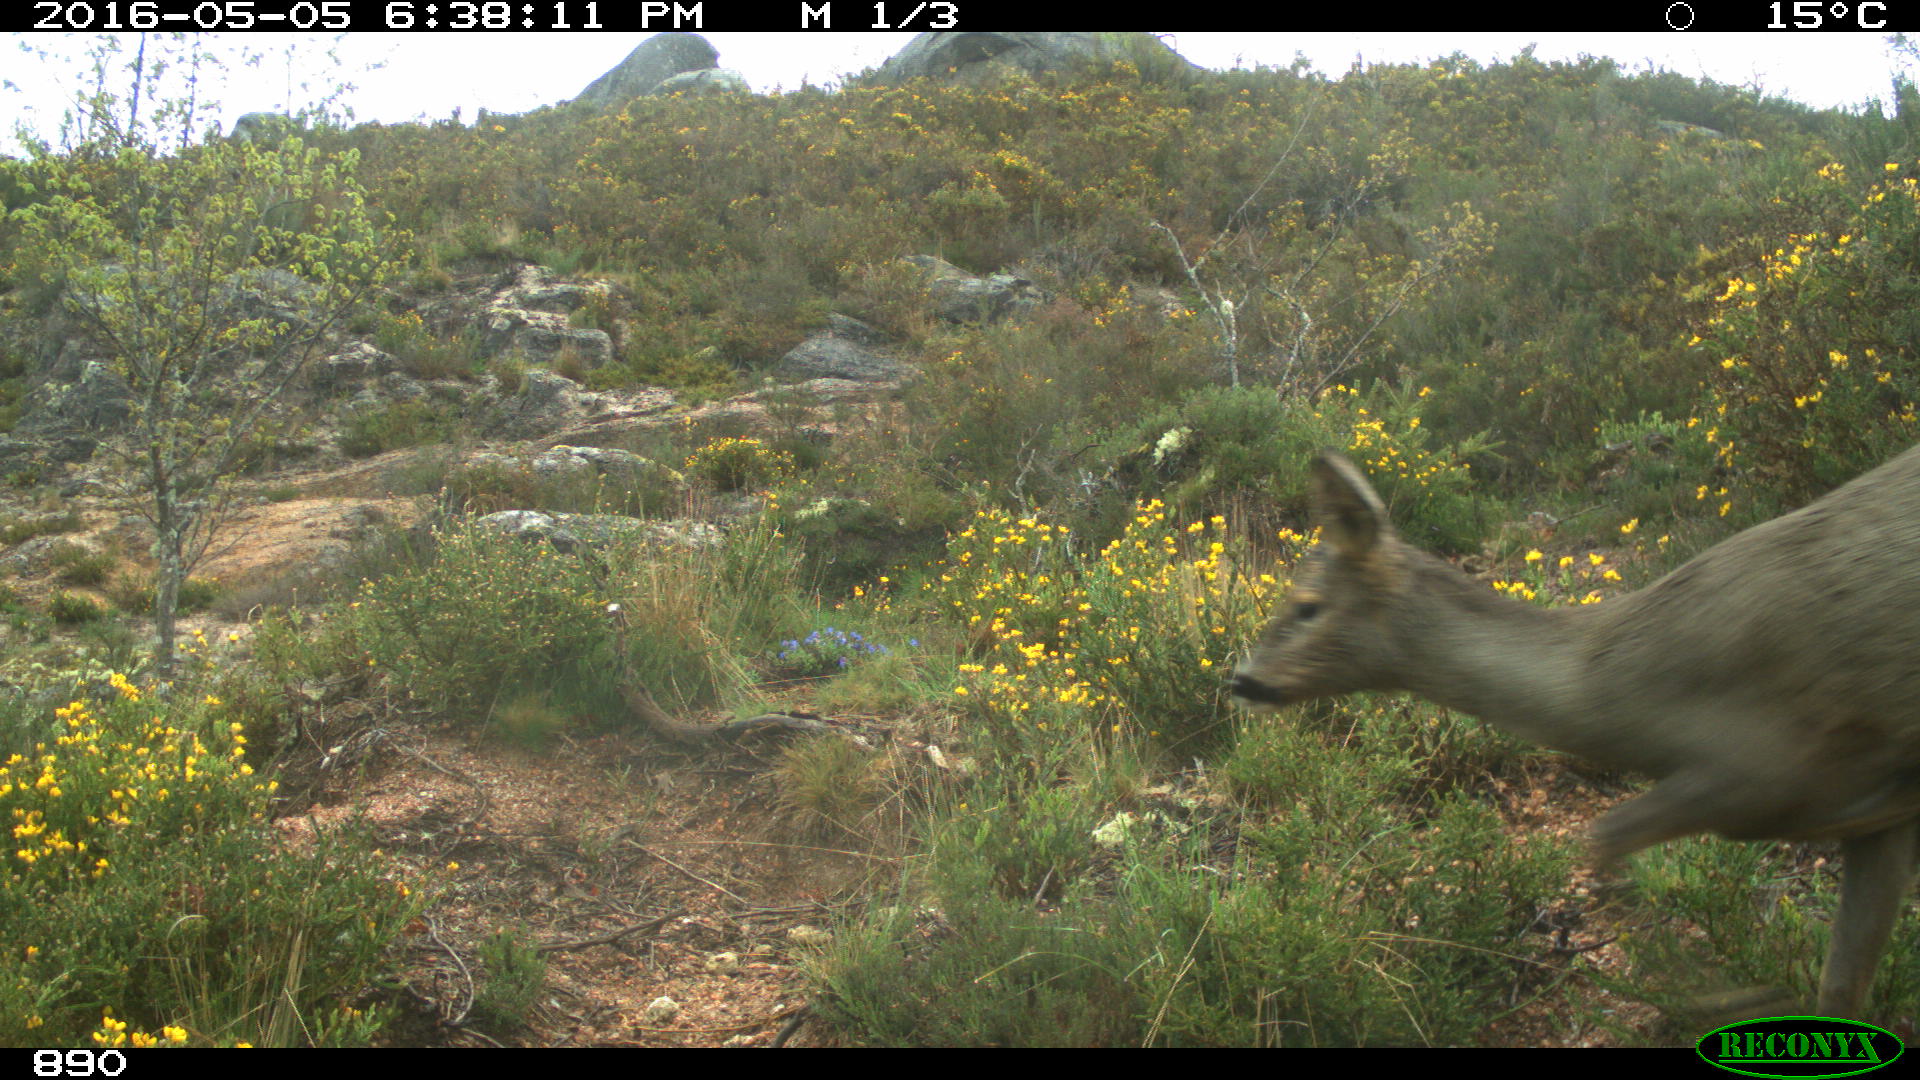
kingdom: Animalia
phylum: Chordata
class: Mammalia
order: Artiodactyla
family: Cervidae
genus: Capreolus
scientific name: Capreolus capreolus
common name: Western roe deer
